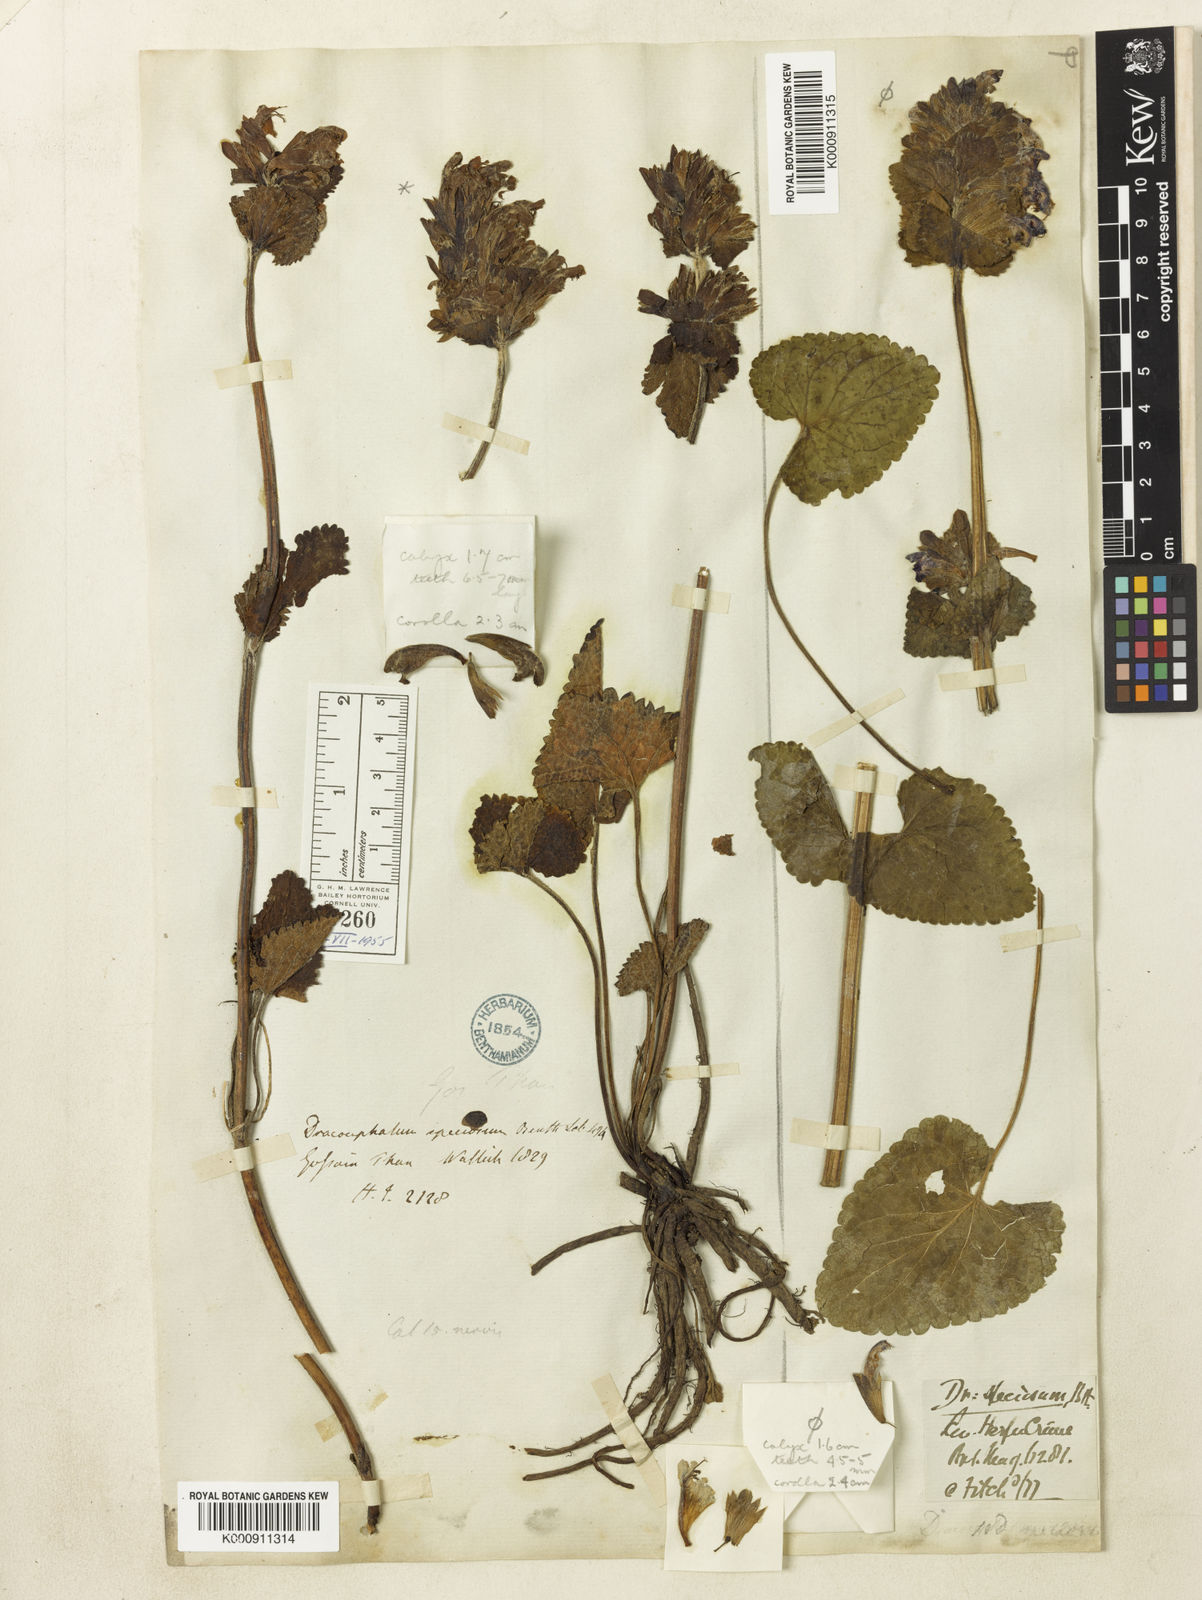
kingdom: Plantae
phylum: Tracheophyta
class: Magnoliopsida
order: Lamiales
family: Lamiaceae
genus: Dracocephalum
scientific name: Dracocephalum wallichii
